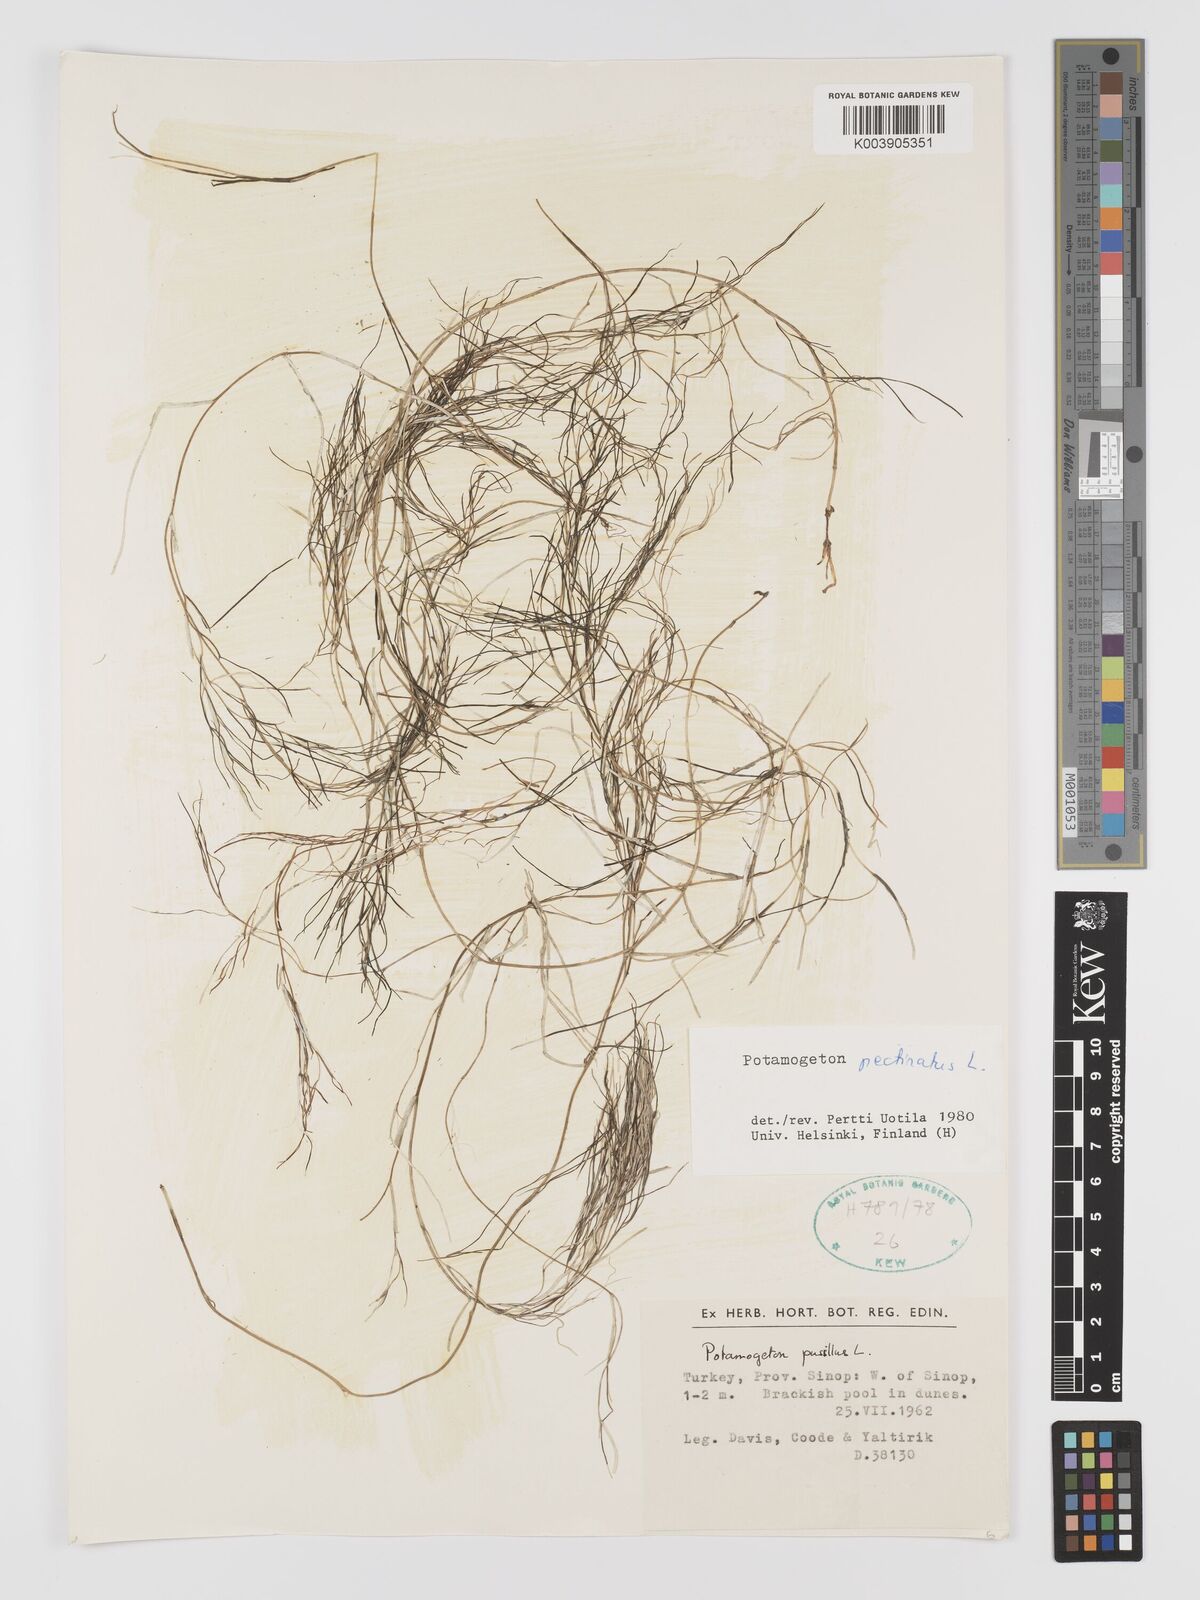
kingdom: Plantae
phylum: Tracheophyta
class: Liliopsida
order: Alismatales
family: Potamogetonaceae
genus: Stuckenia
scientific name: Stuckenia pectinata
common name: Sago pondweed
